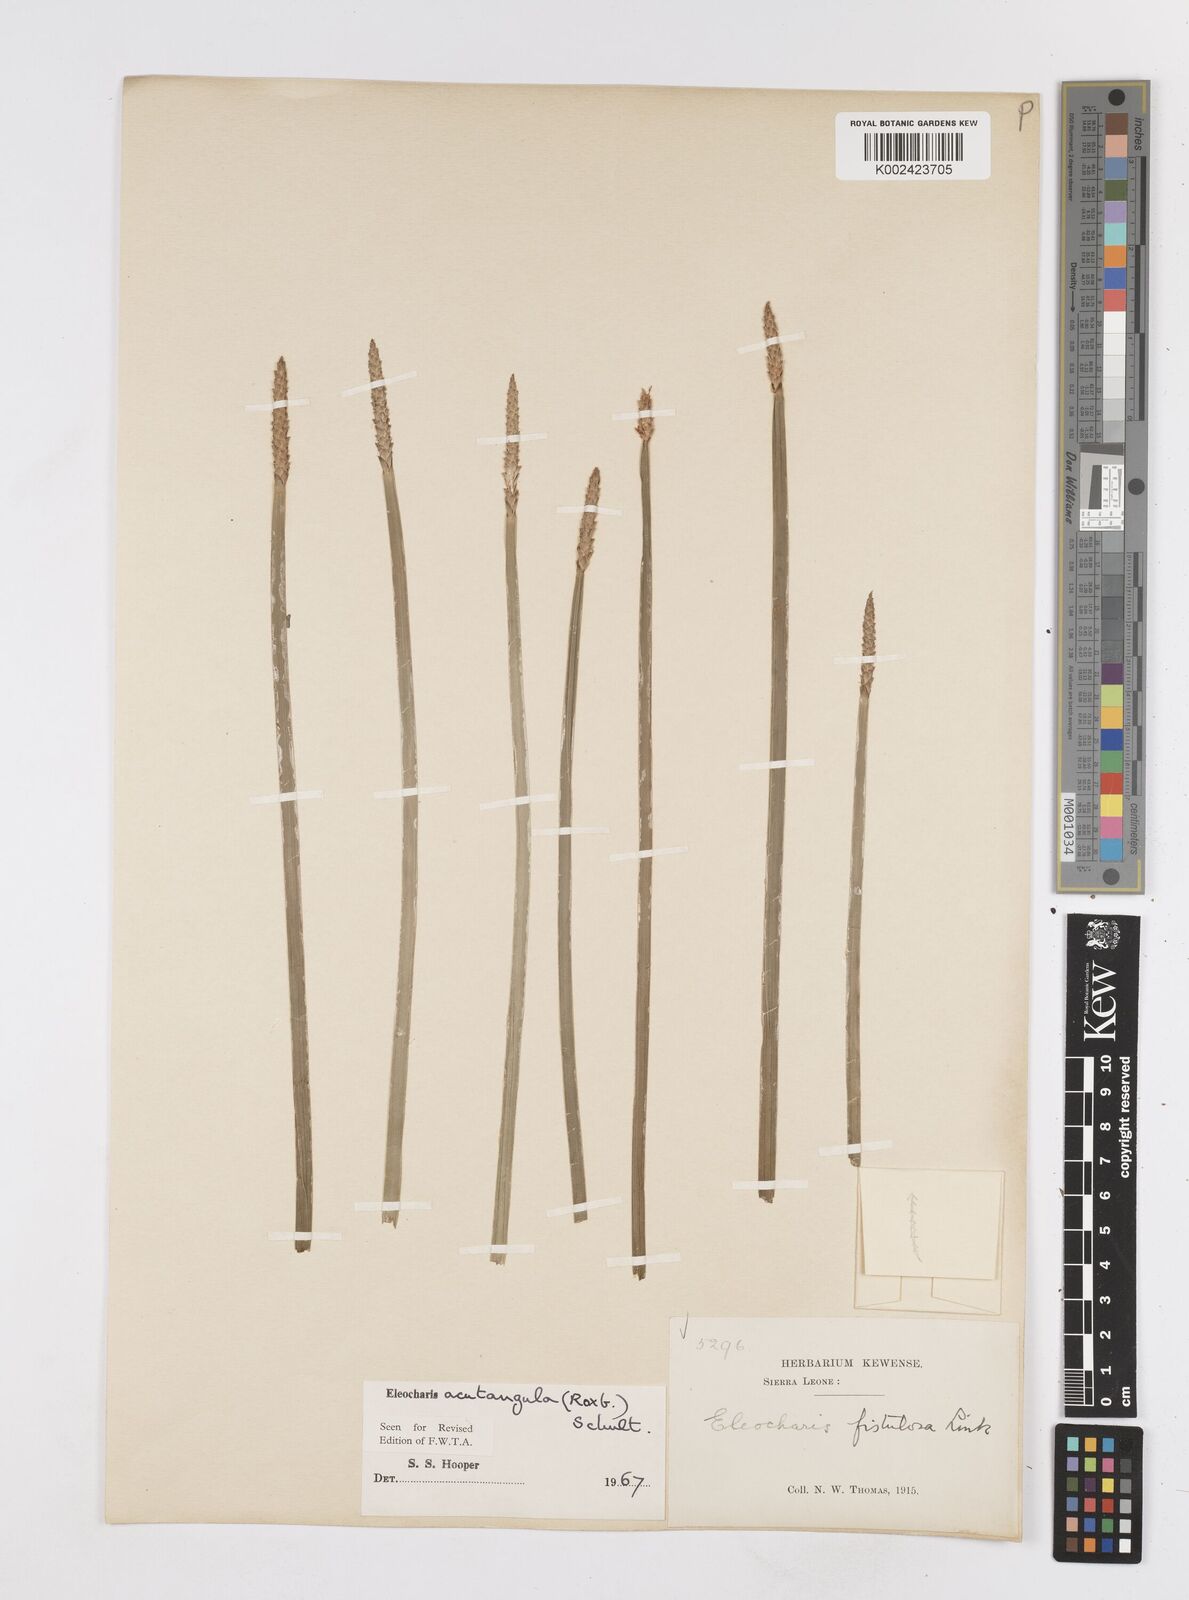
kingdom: Plantae
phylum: Tracheophyta
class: Liliopsida
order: Poales
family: Cyperaceae
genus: Eleocharis
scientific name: Eleocharis acutangula
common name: Acute spikerush
